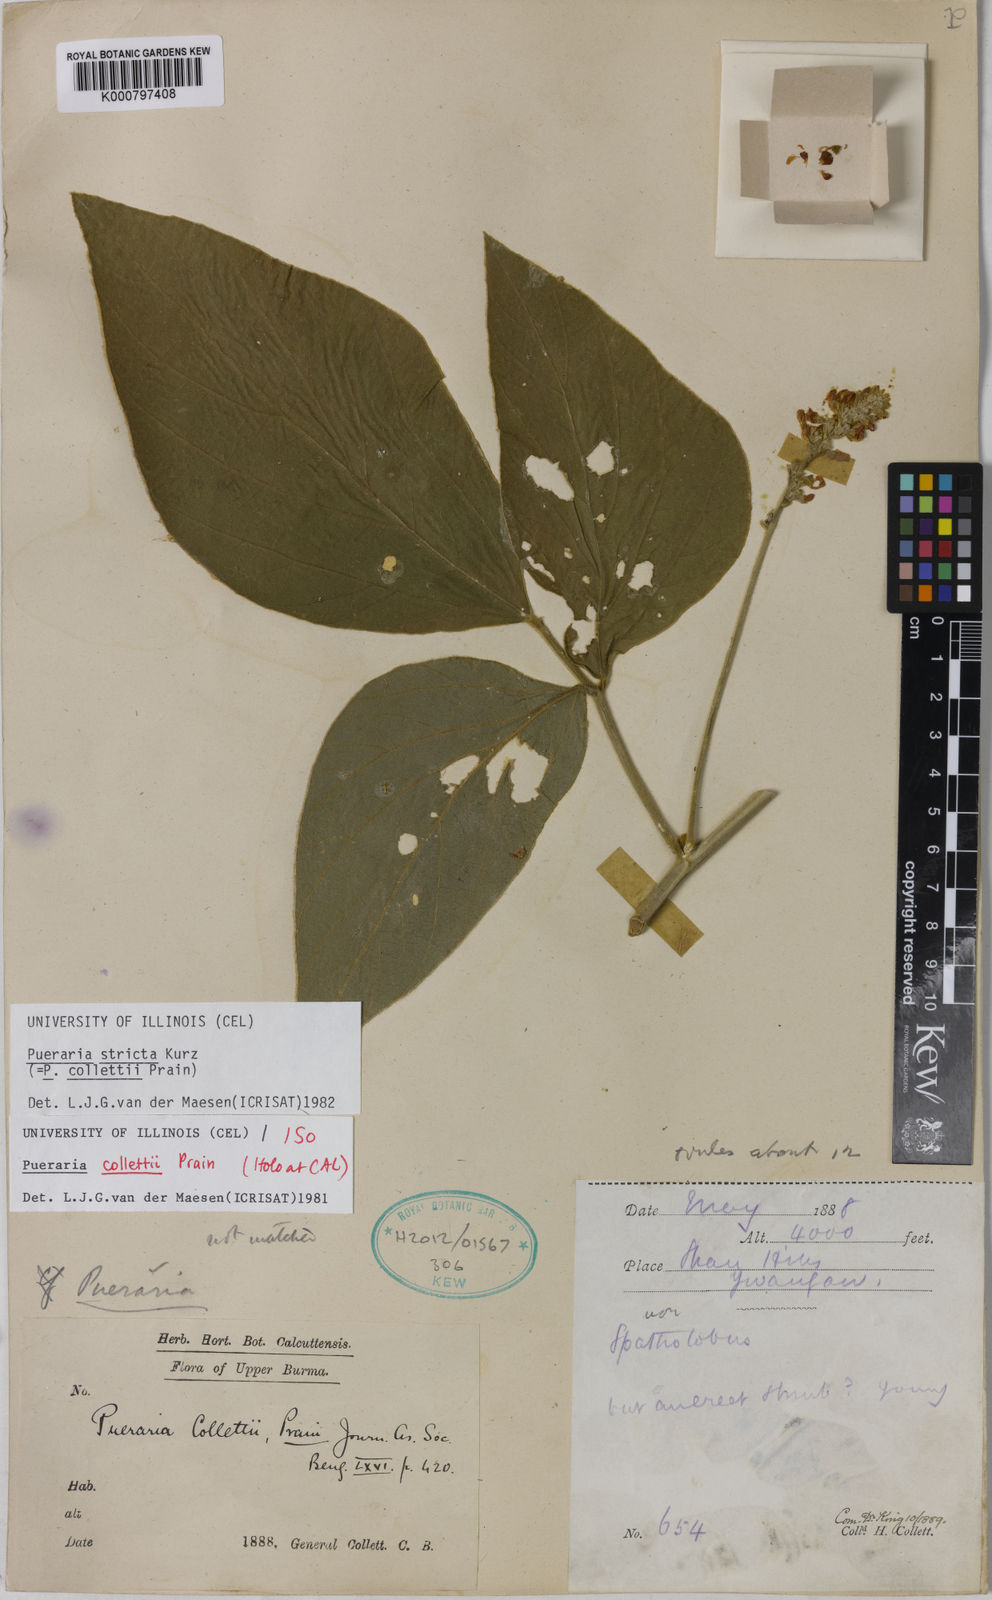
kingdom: Plantae
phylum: Tracheophyta
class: Magnoliopsida
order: Fabales
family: Fabaceae
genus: Teyleria
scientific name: Teyleria stricta
